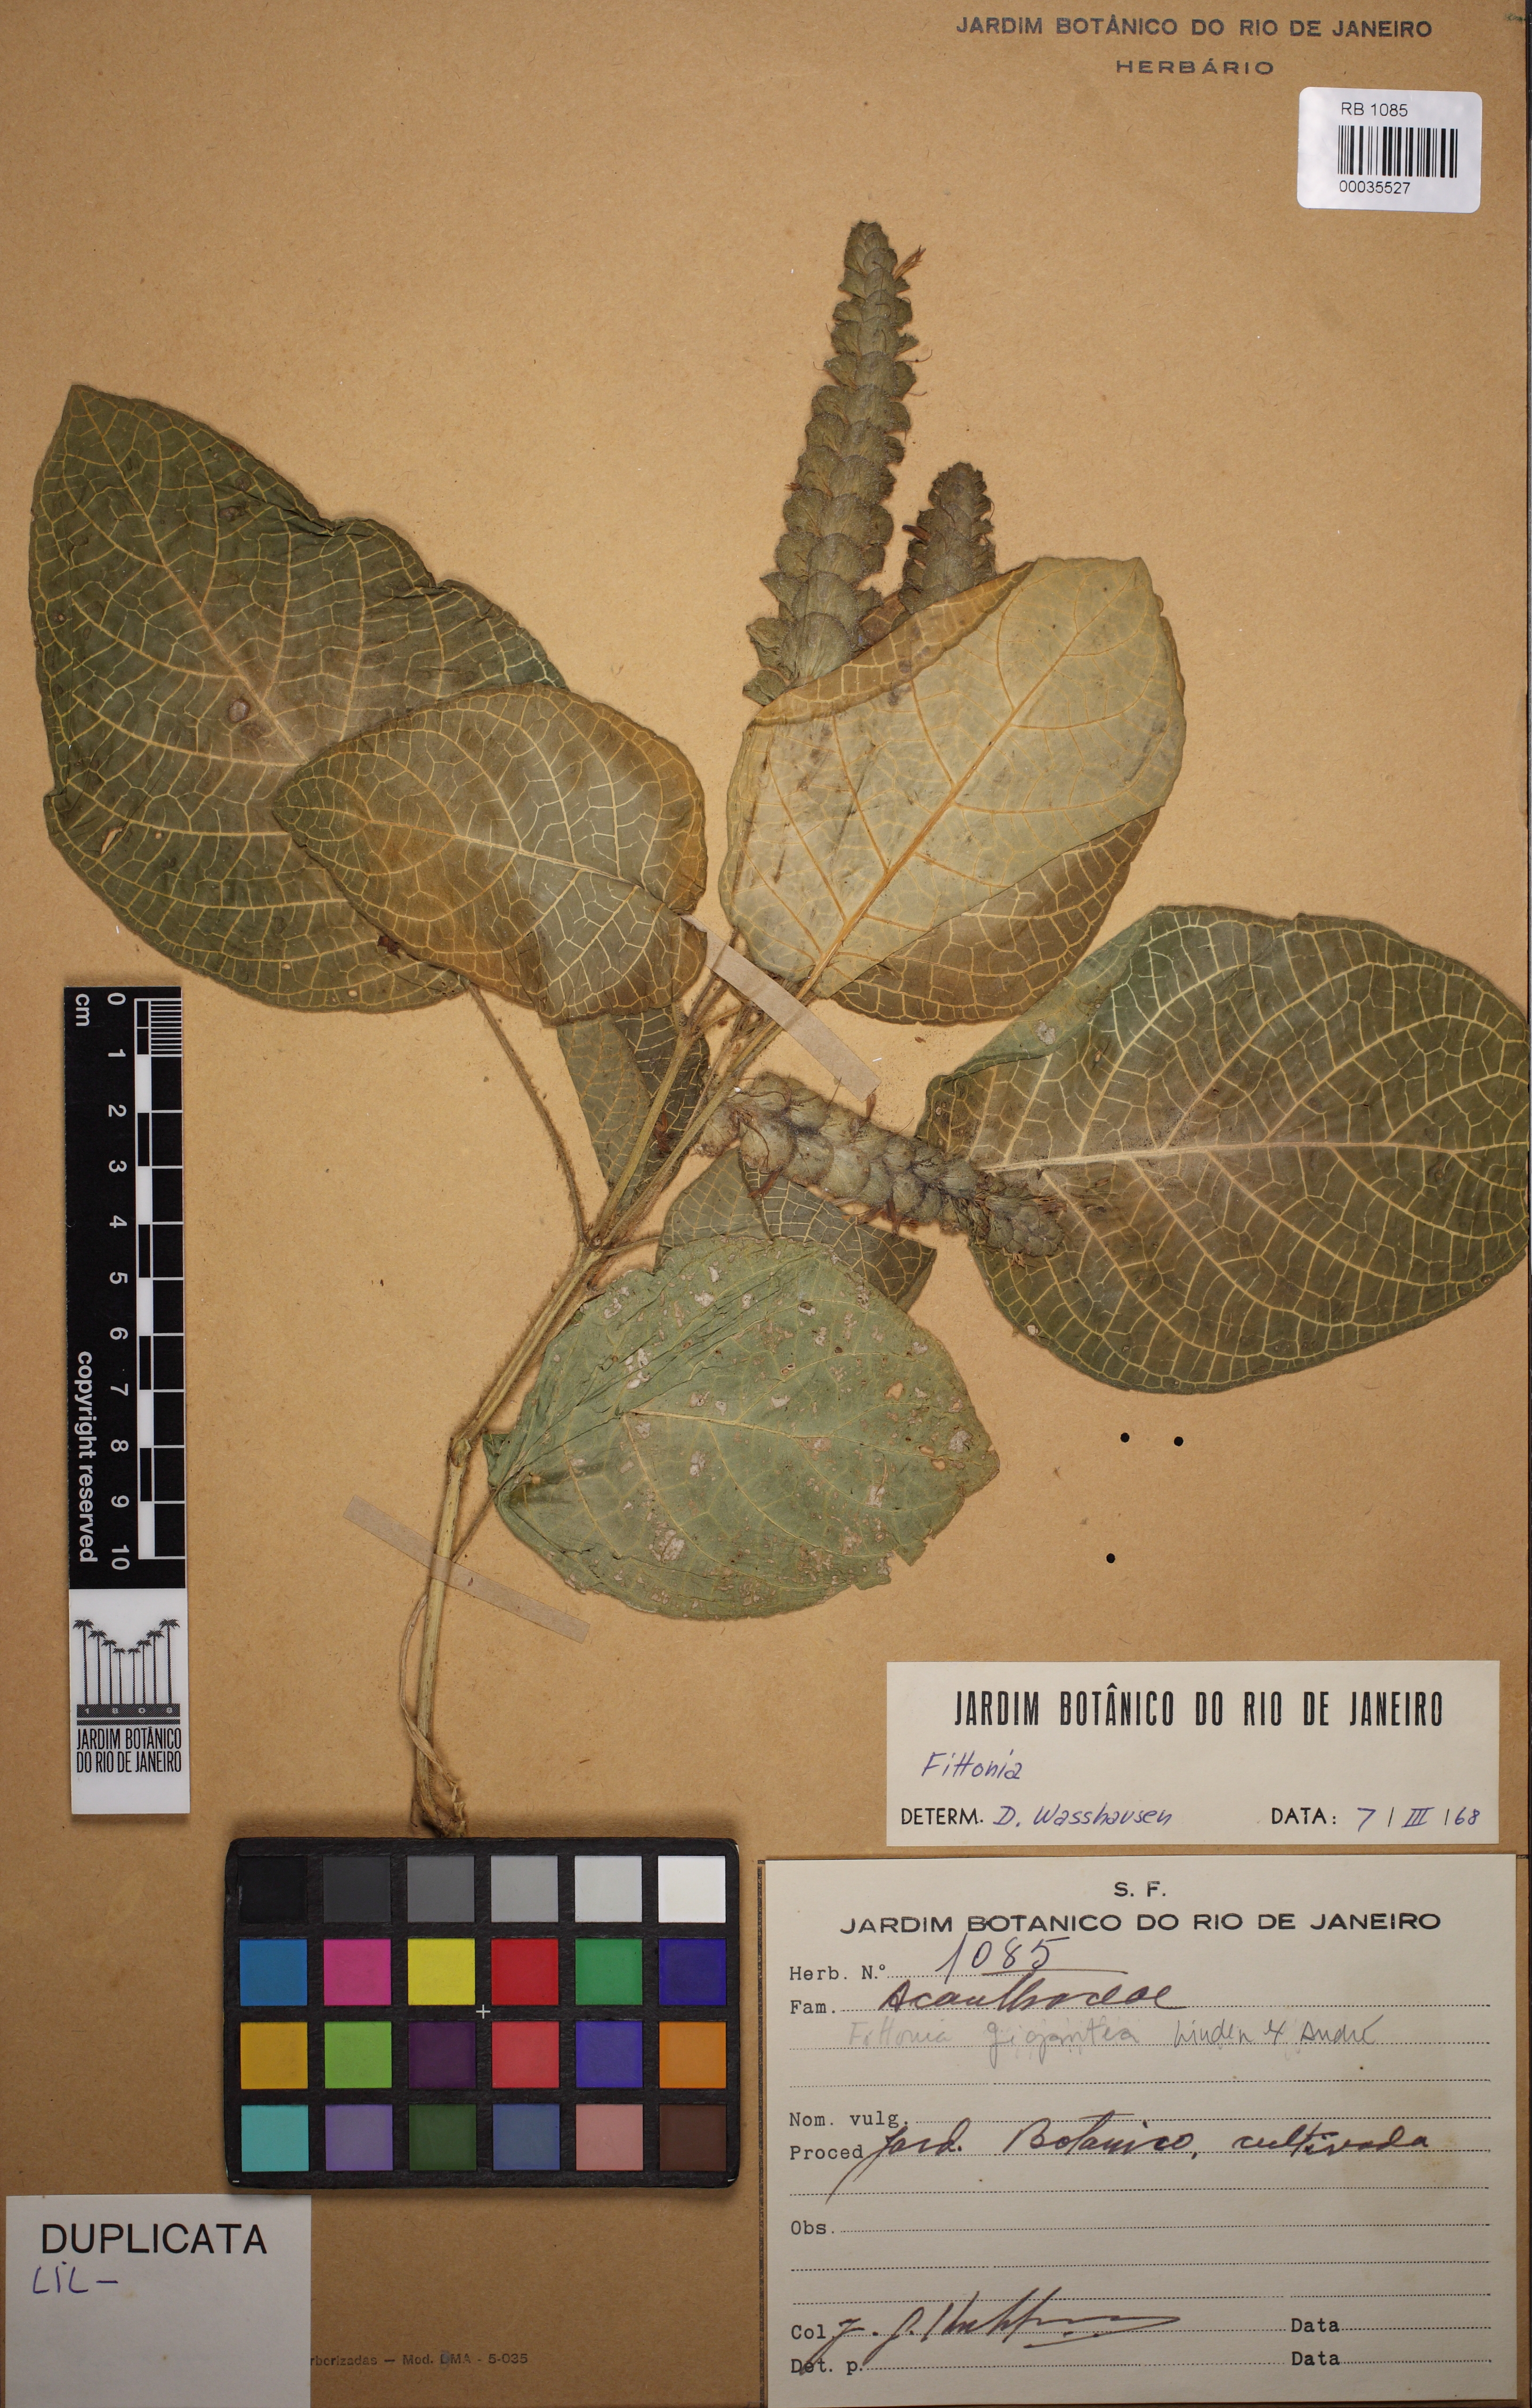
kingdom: Plantae
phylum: Tracheophyta
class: Magnoliopsida
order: Lamiales
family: Acanthaceae
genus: Fittonia
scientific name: Fittonia gigantea
